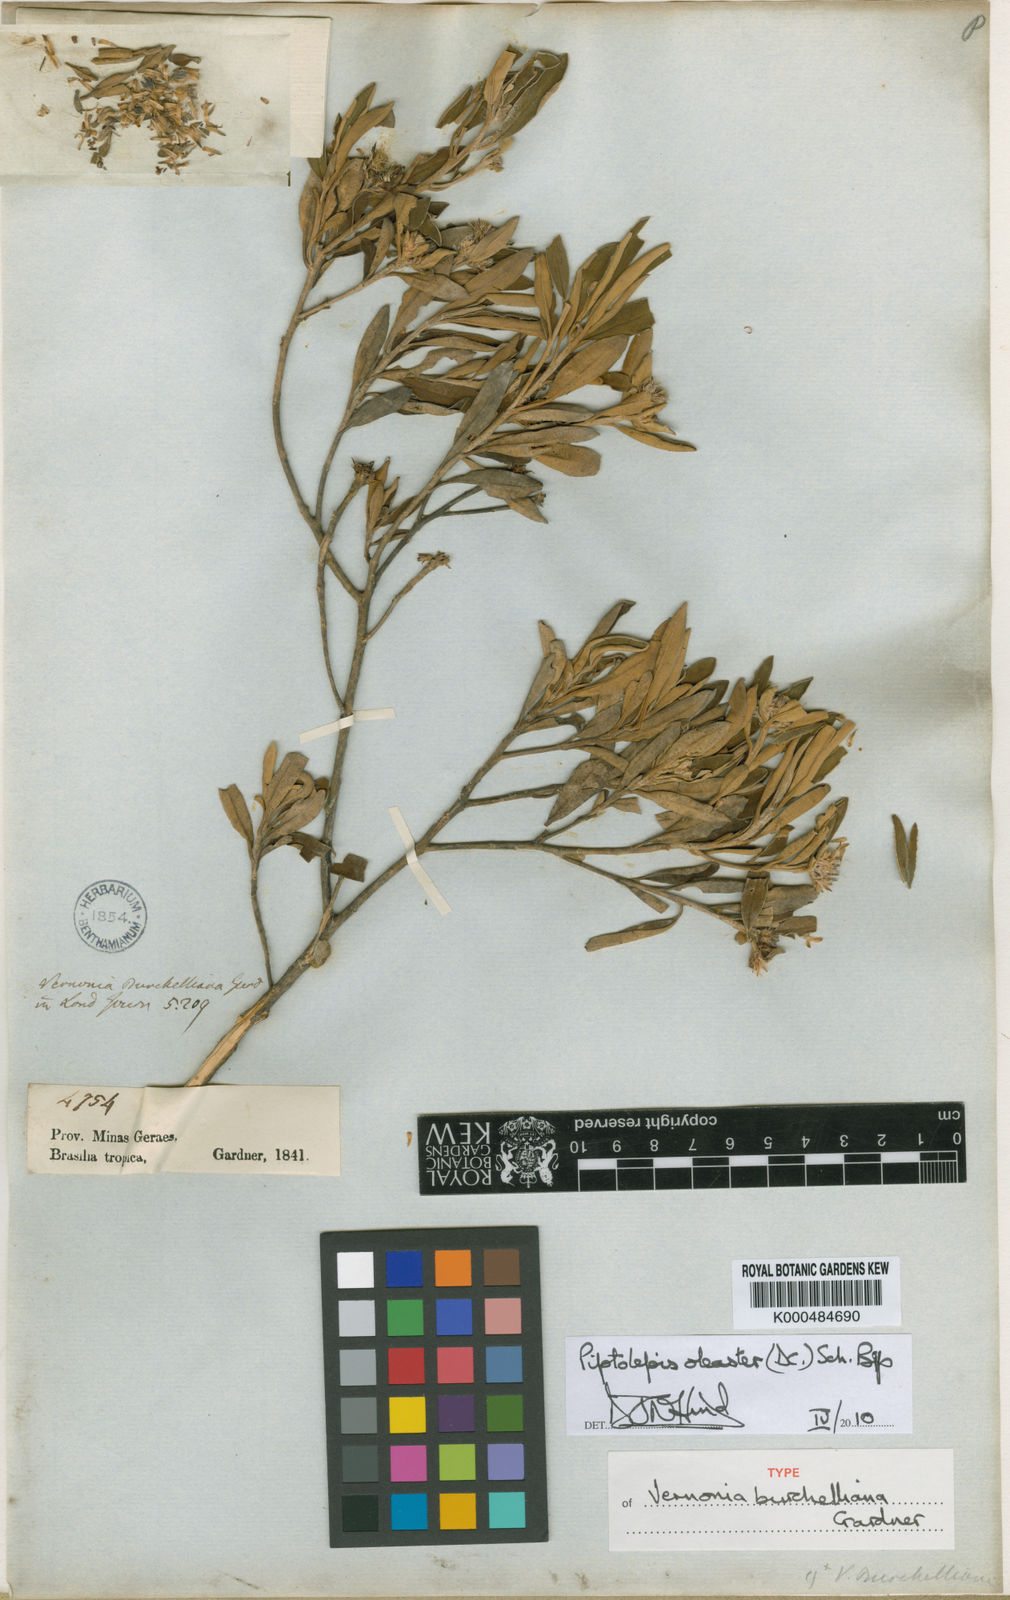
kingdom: Plantae
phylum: Tracheophyta
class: Magnoliopsida
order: Asterales
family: Asteraceae
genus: Piptolepis
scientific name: Piptolepis oleaster
